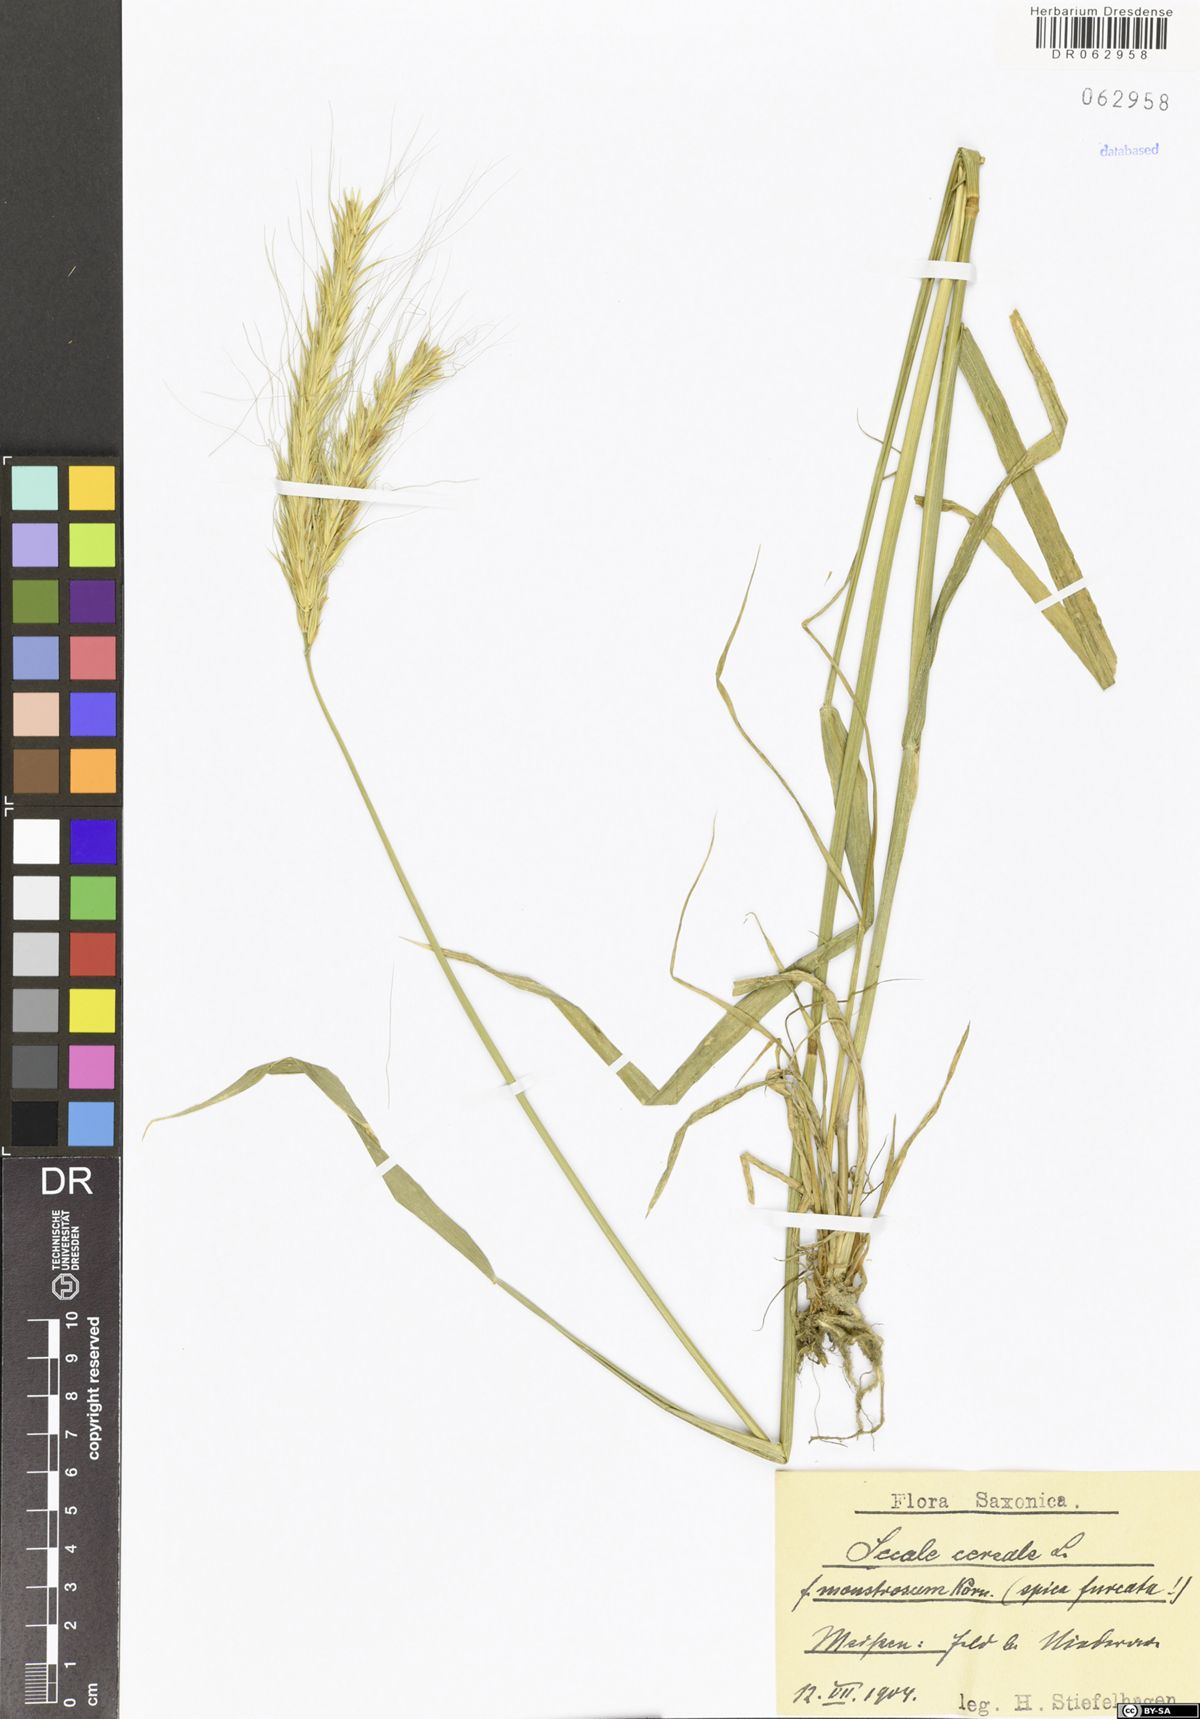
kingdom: Plantae
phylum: Tracheophyta
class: Liliopsida
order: Poales
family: Poaceae
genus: Secale
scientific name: Secale cereale
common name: Rye
